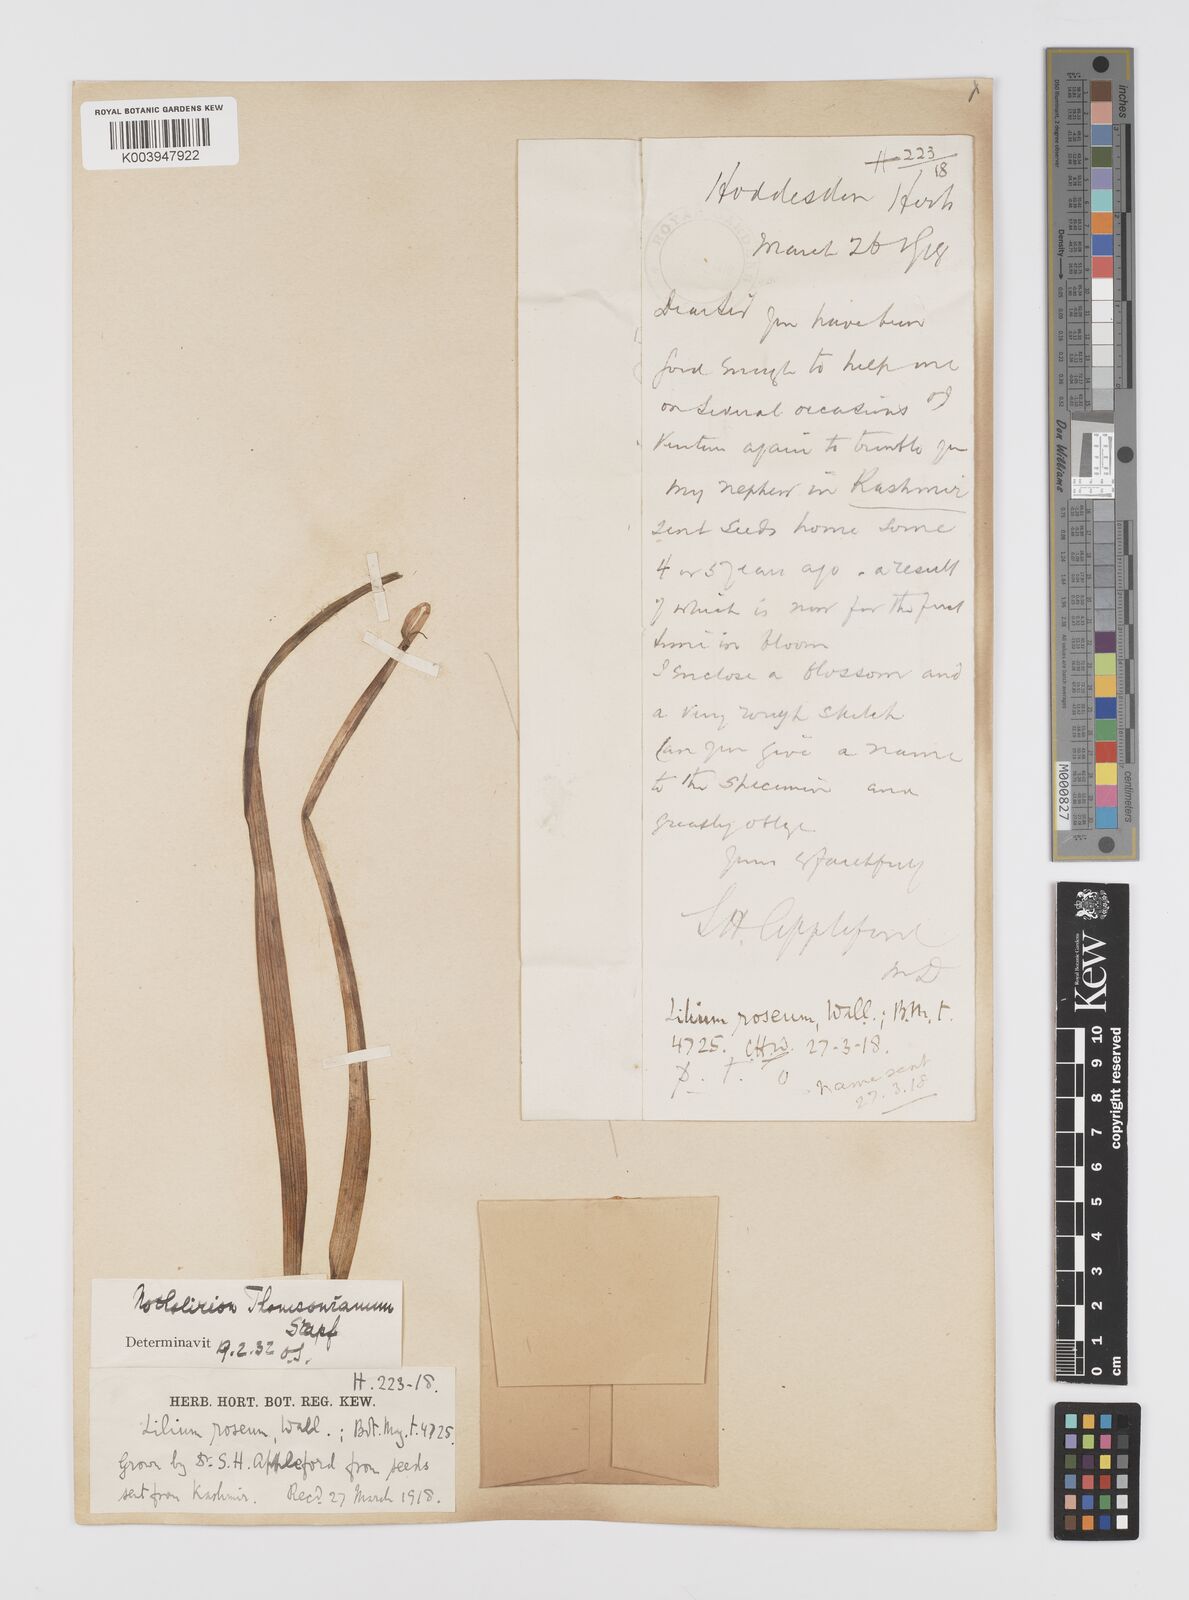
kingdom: Plantae
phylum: Tracheophyta
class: Liliopsida
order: Liliales
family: Liliaceae
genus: Notholirion
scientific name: Notholirion thomsonianum
